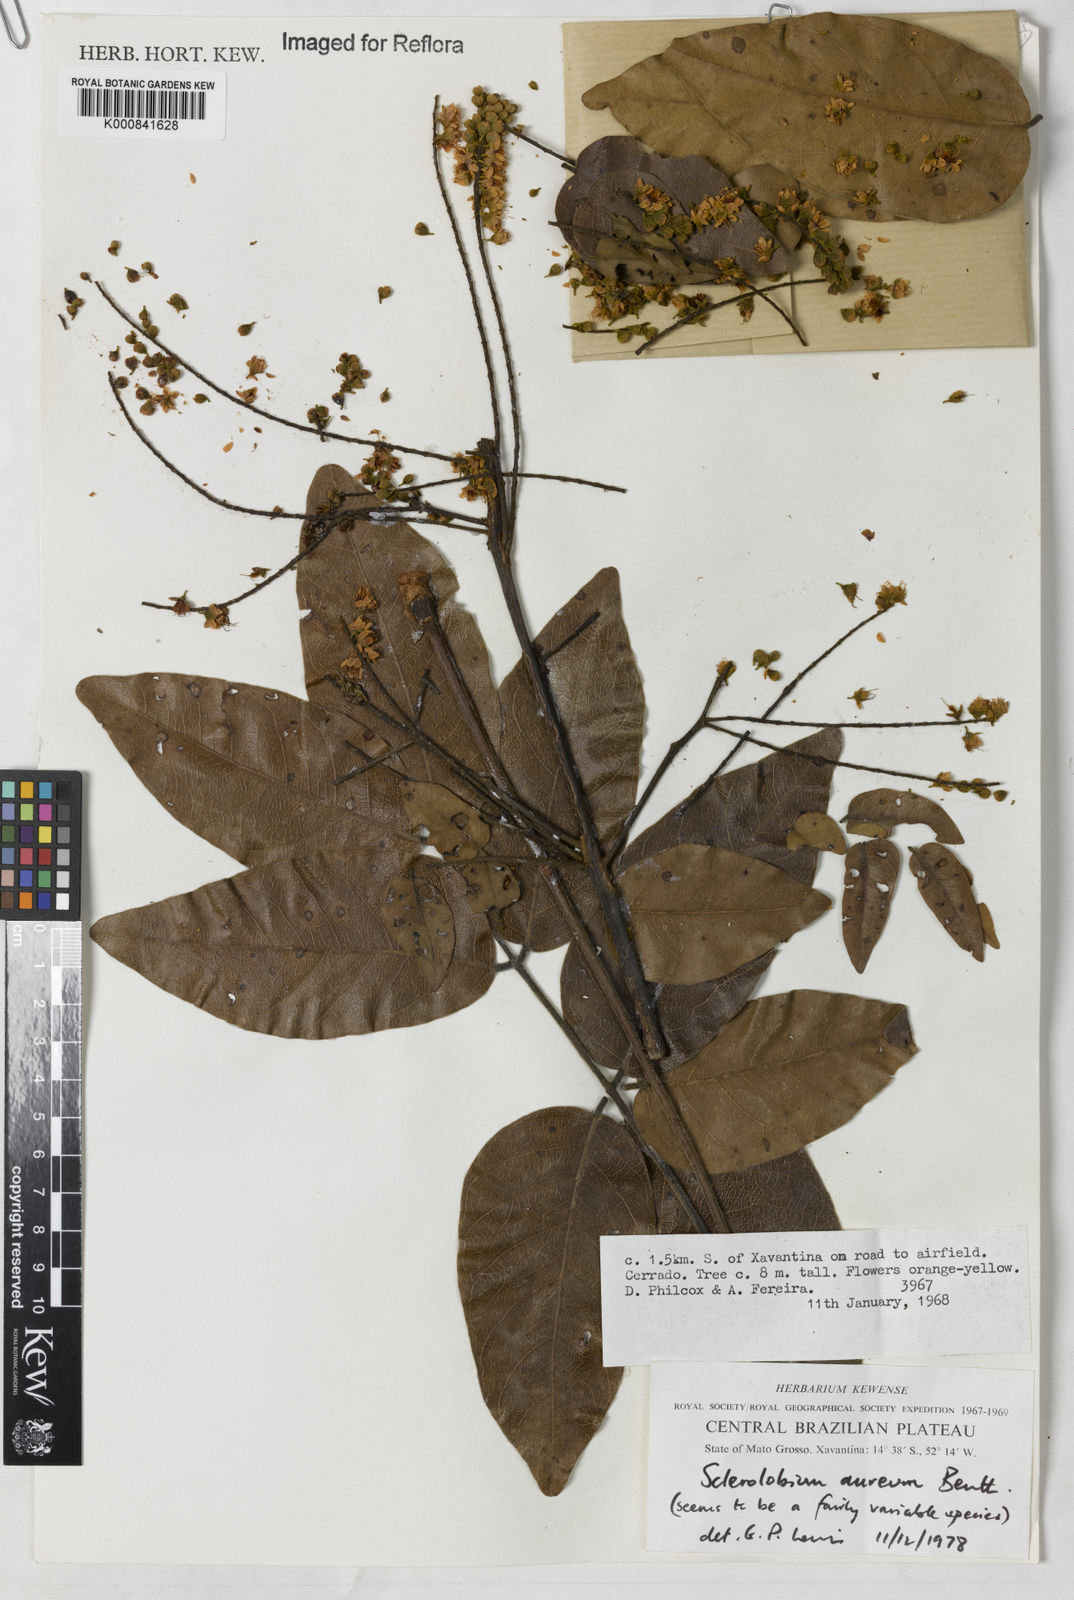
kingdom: Plantae
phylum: Tracheophyta
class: Magnoliopsida
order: Fabales
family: Fabaceae
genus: Tachigali
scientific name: Tachigali aurea
